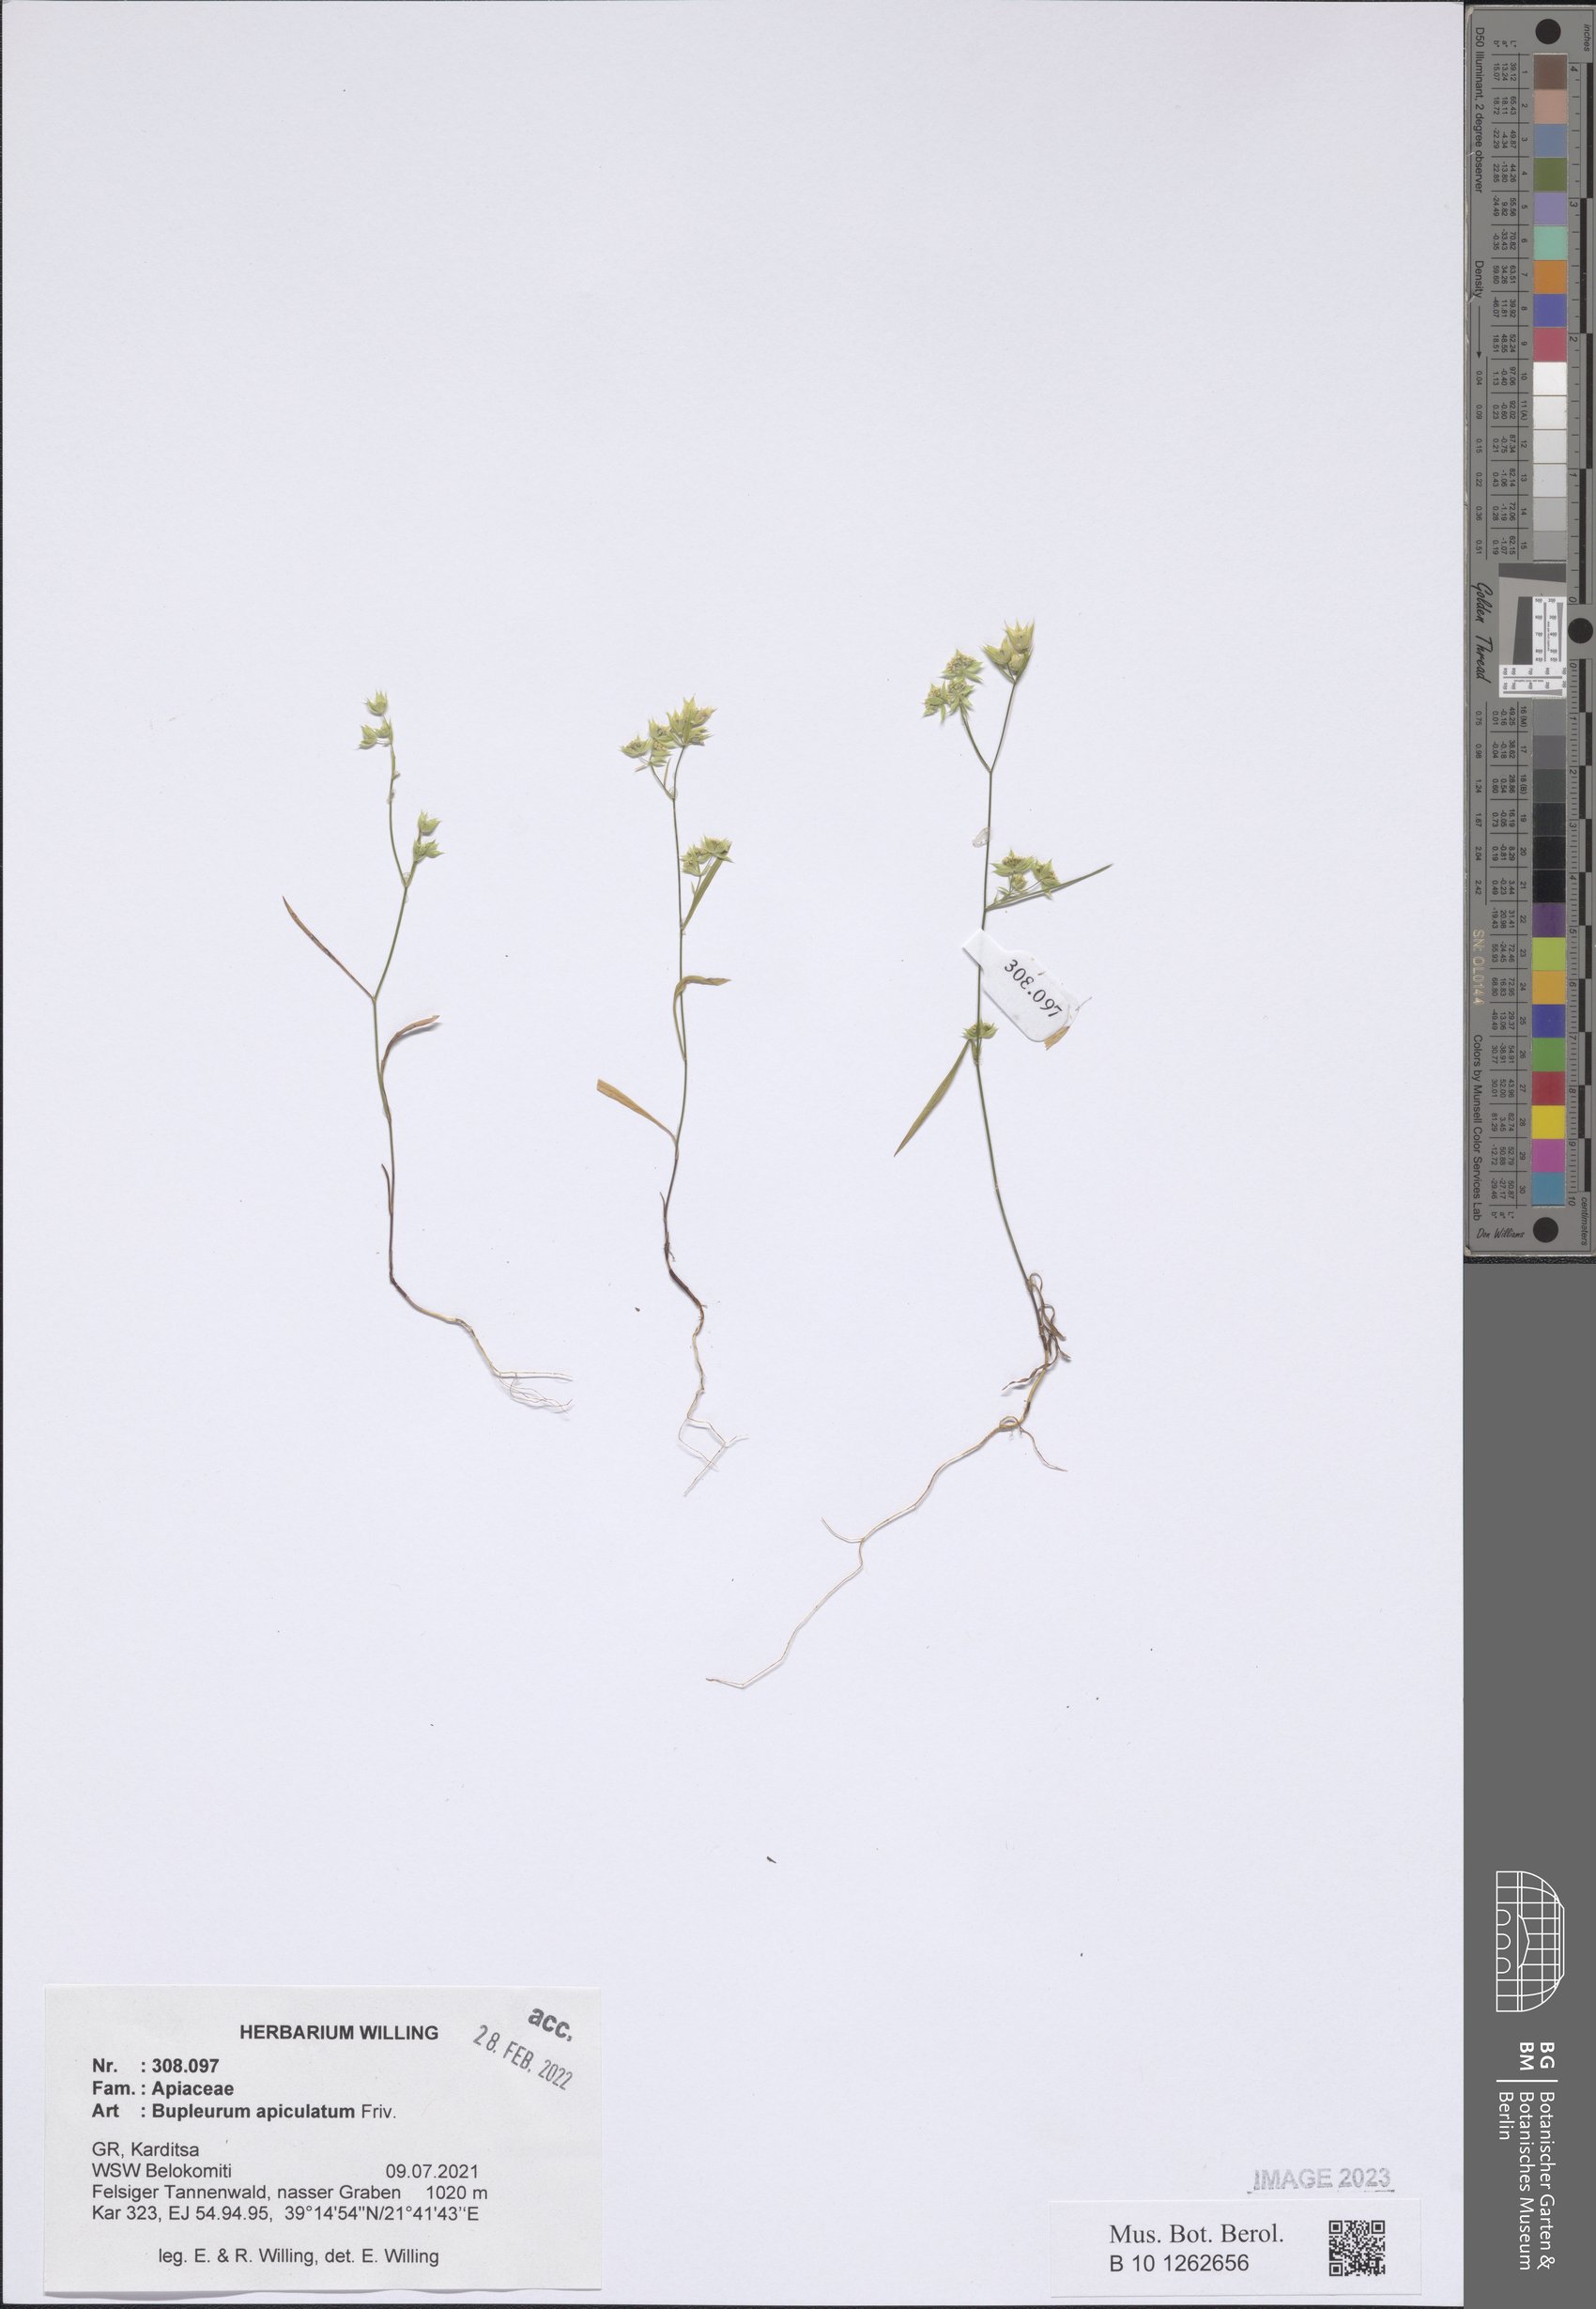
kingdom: Plantae
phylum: Tracheophyta
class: Magnoliopsida
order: Apiales
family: Apiaceae
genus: Bupleurum
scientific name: Bupleurum apiculatum
